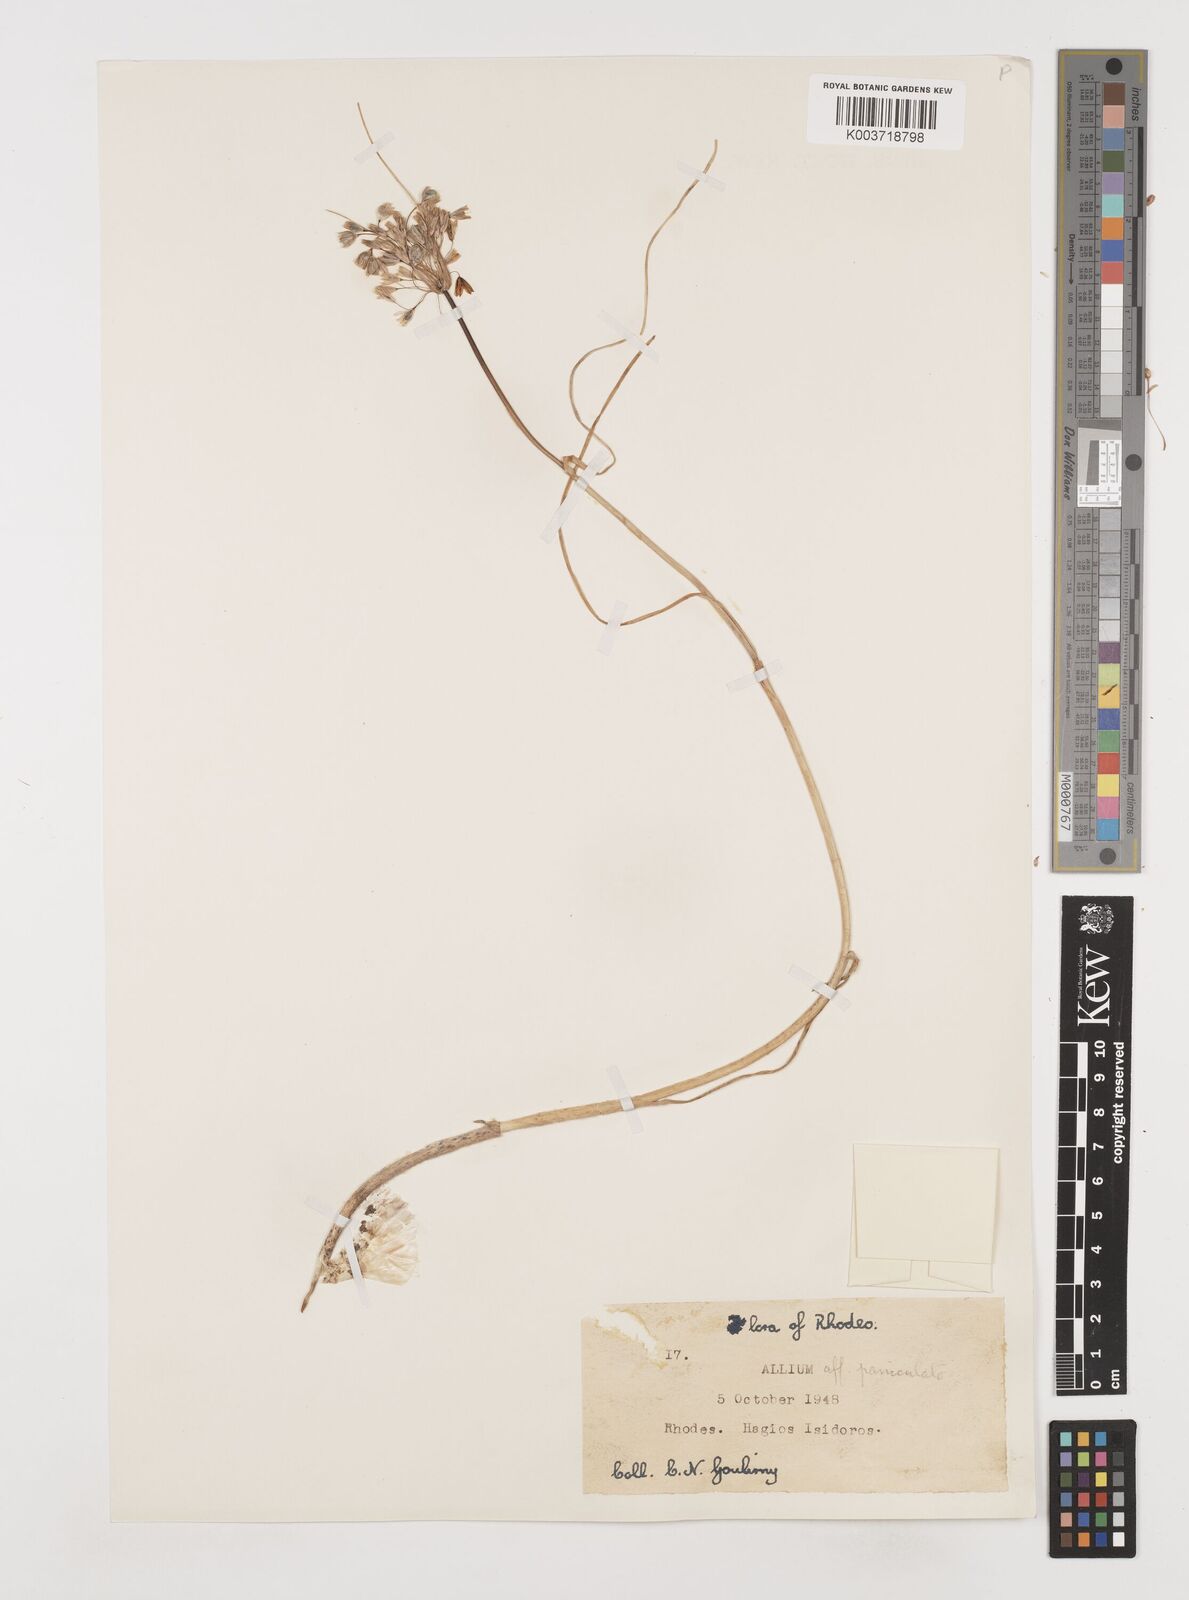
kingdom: Plantae
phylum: Tracheophyta
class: Liliopsida
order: Asparagales
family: Amaryllidaceae
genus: Allium
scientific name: Allium paniculatum
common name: Pale garlic
